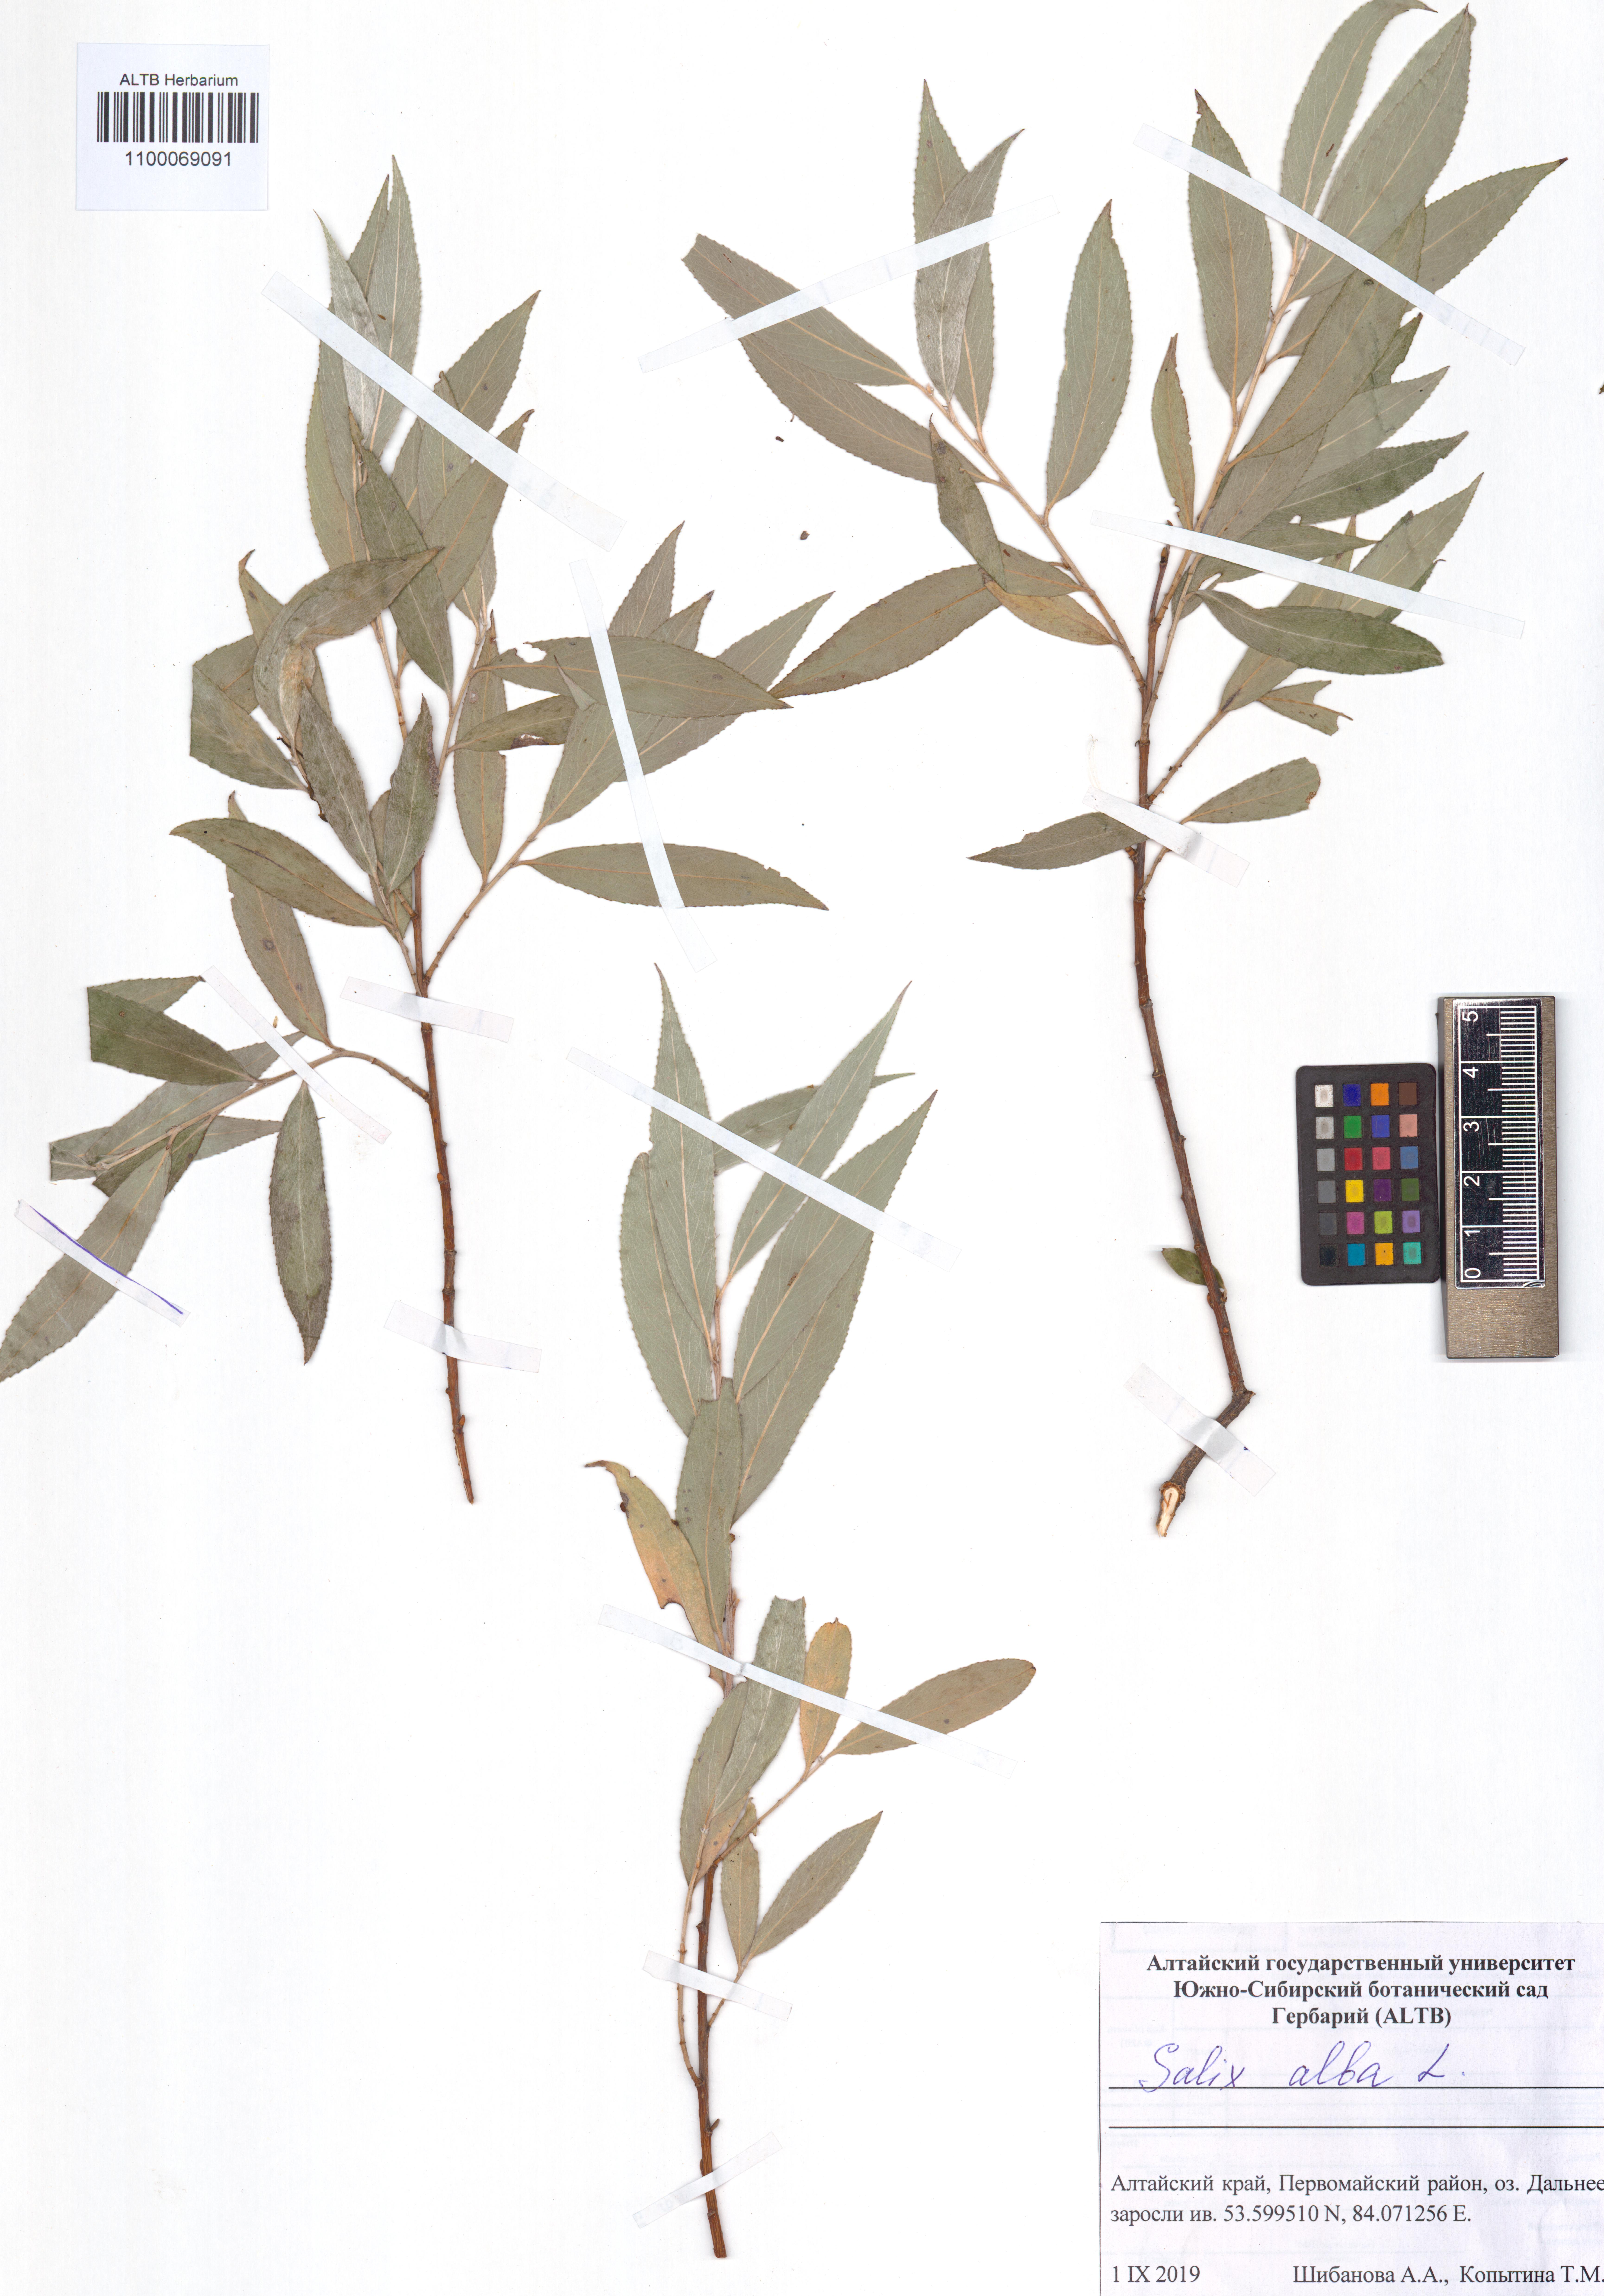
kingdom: Plantae
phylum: Tracheophyta
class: Magnoliopsida
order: Malpighiales
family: Salicaceae
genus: Salix
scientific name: Salix alba
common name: White willow
